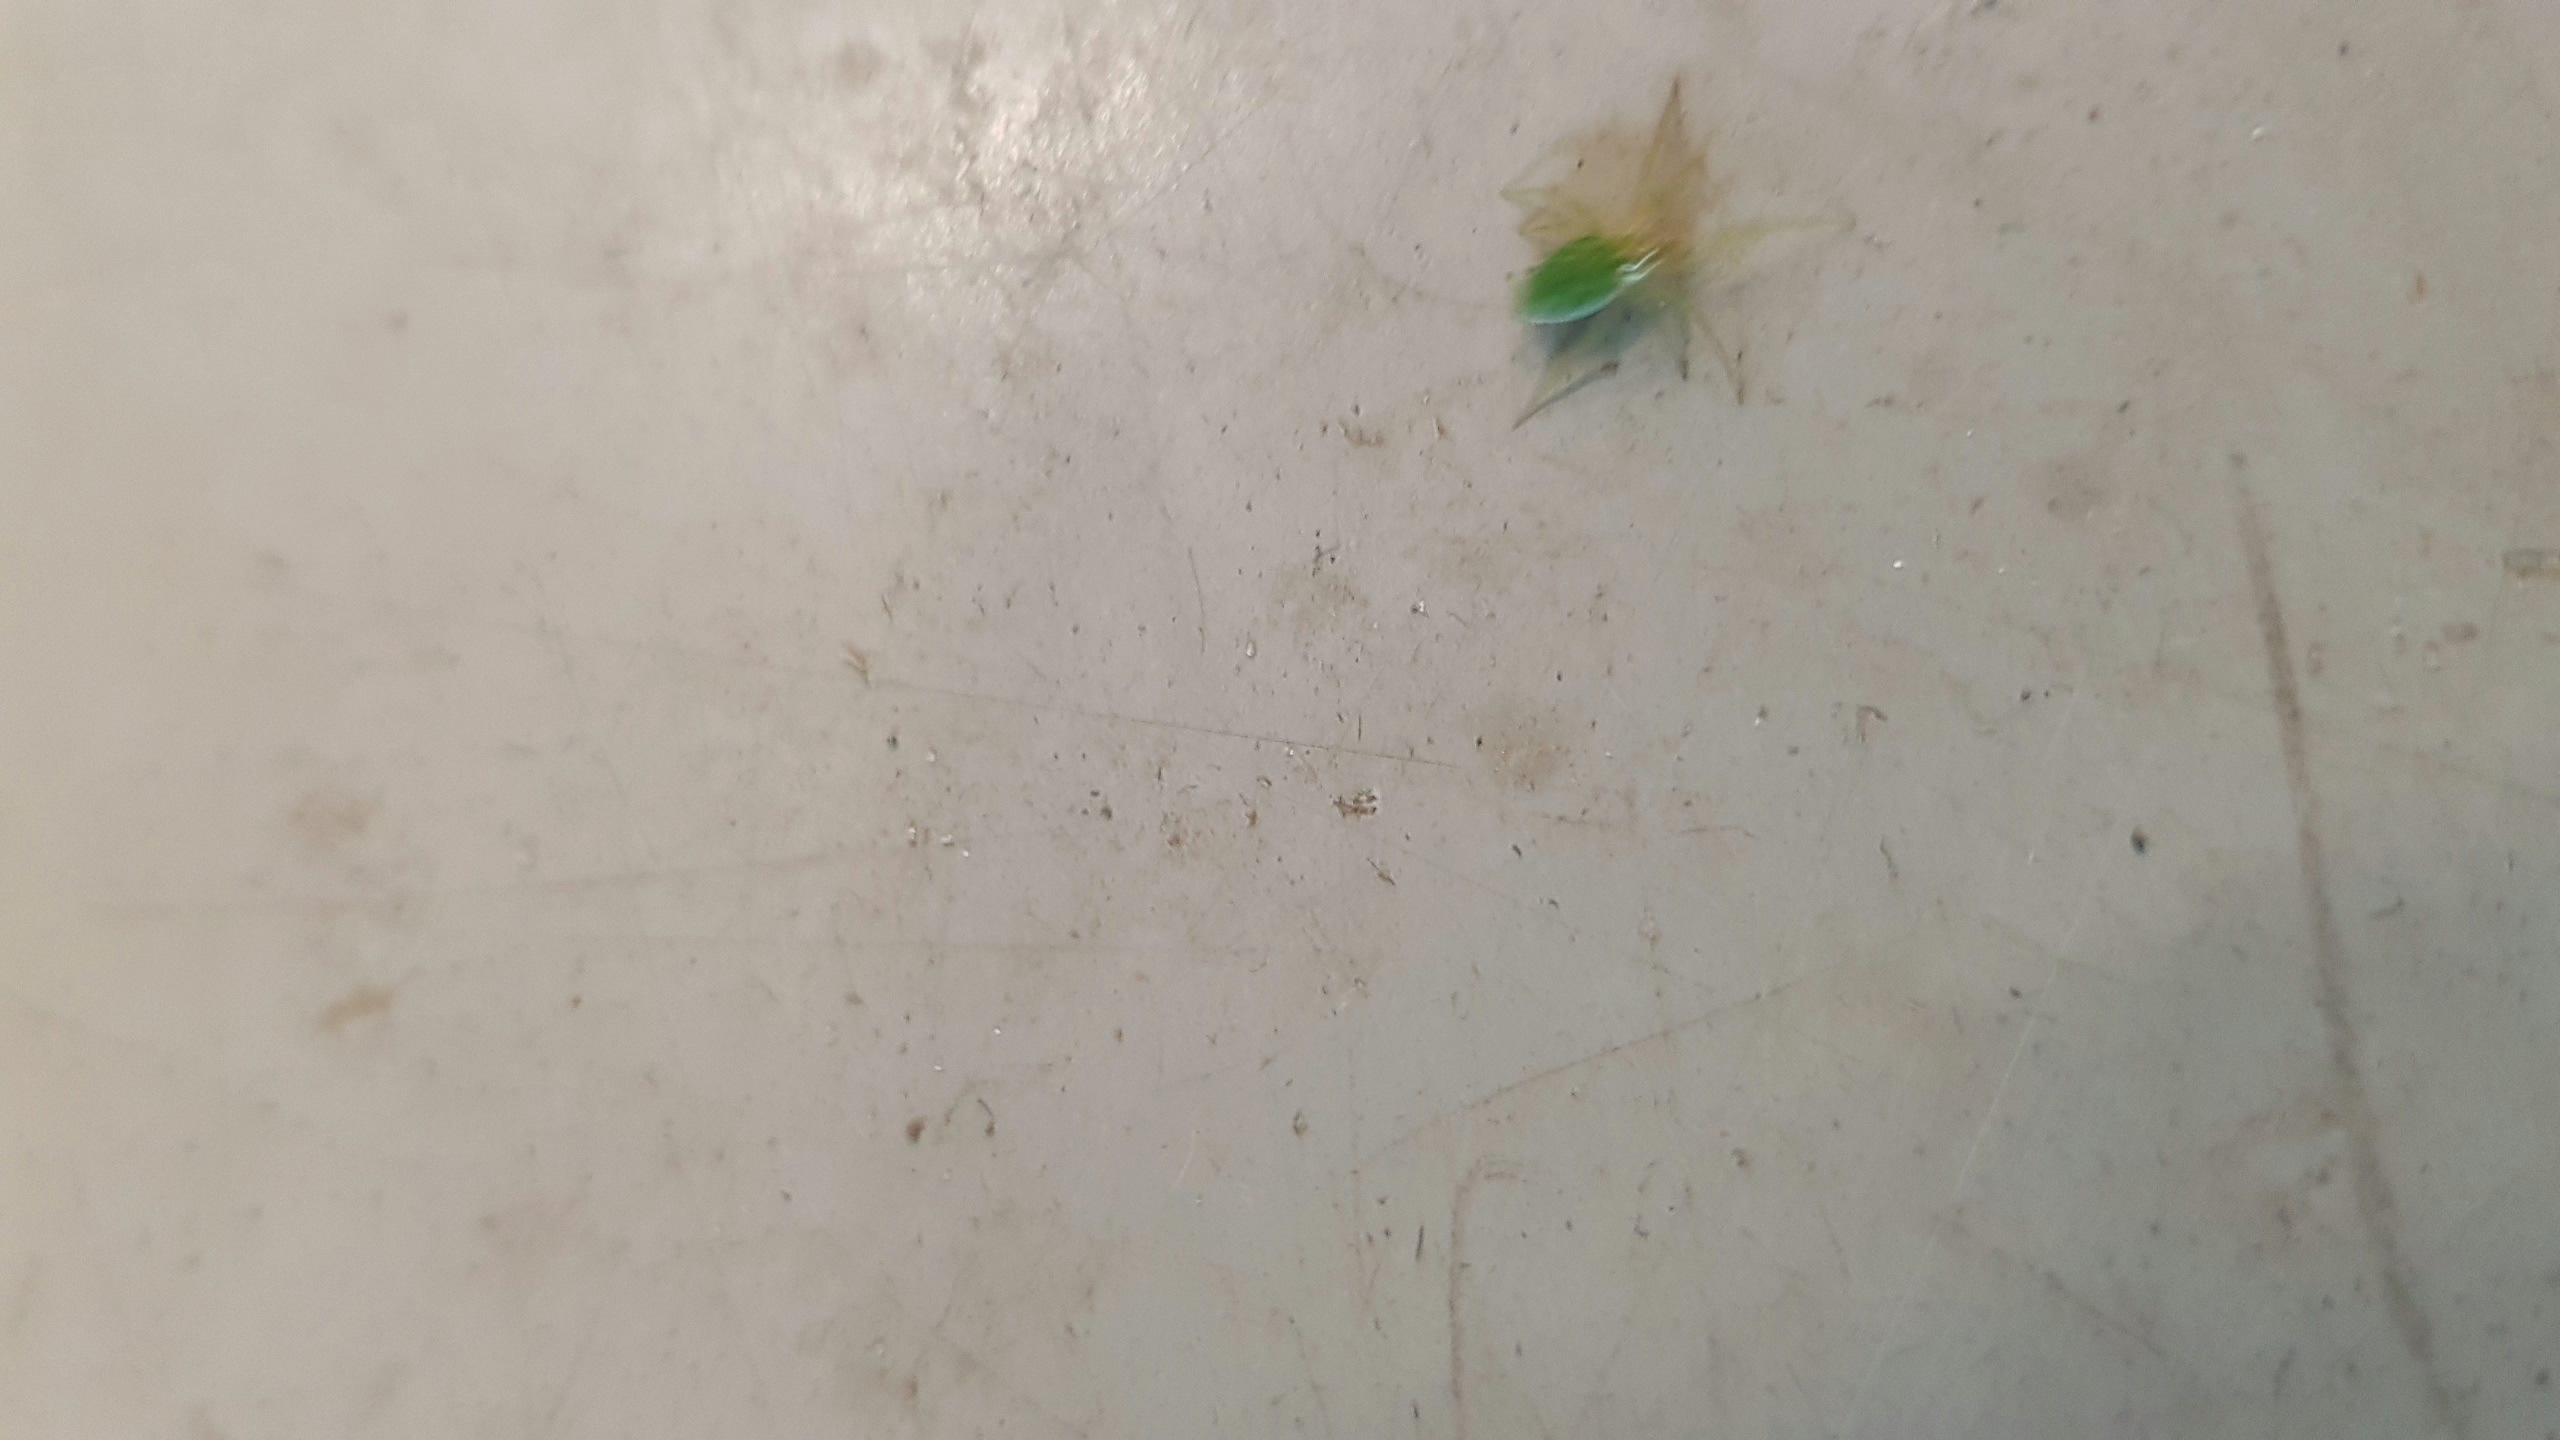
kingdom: Animalia
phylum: Arthropoda
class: Arachnida
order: Araneae
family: Dictynidae
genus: Nigma
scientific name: Nigma walckenaeri
